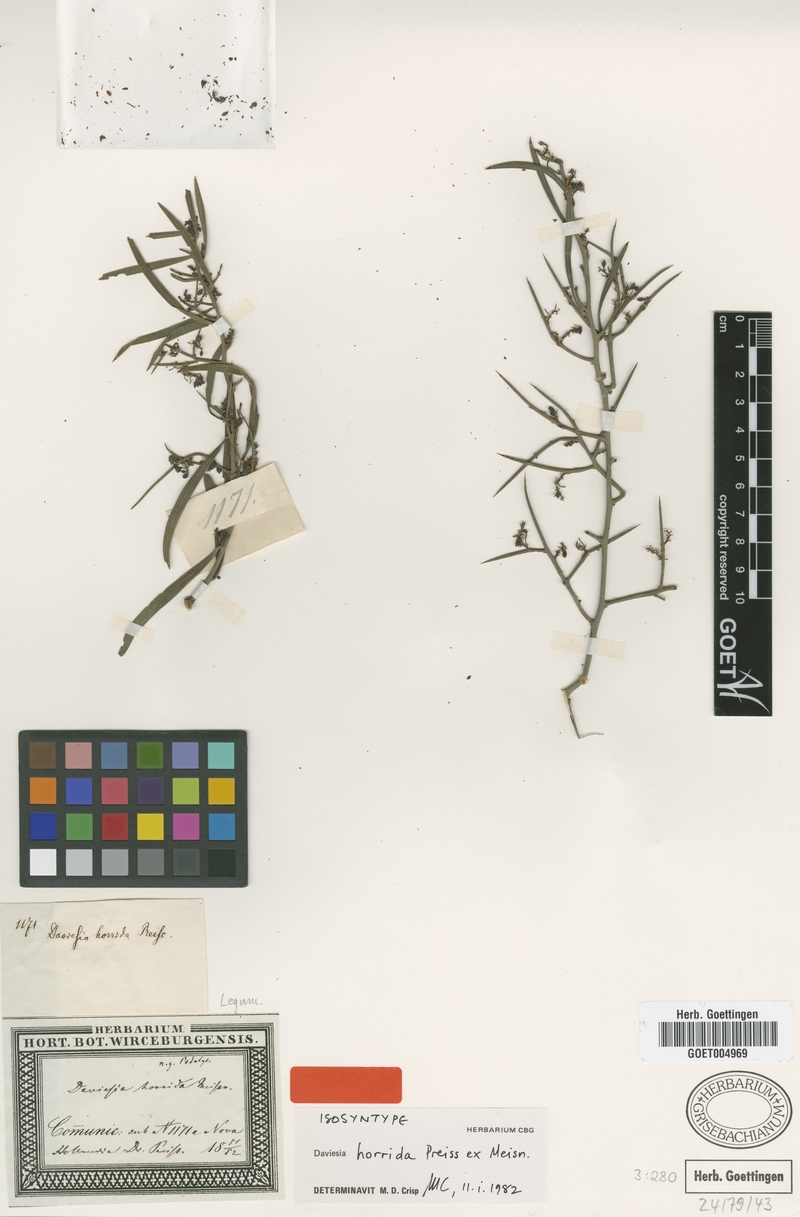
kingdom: Plantae
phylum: Tracheophyta
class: Magnoliopsida
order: Fabales
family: Fabaceae
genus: Daviesia
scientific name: Daviesia horrida
